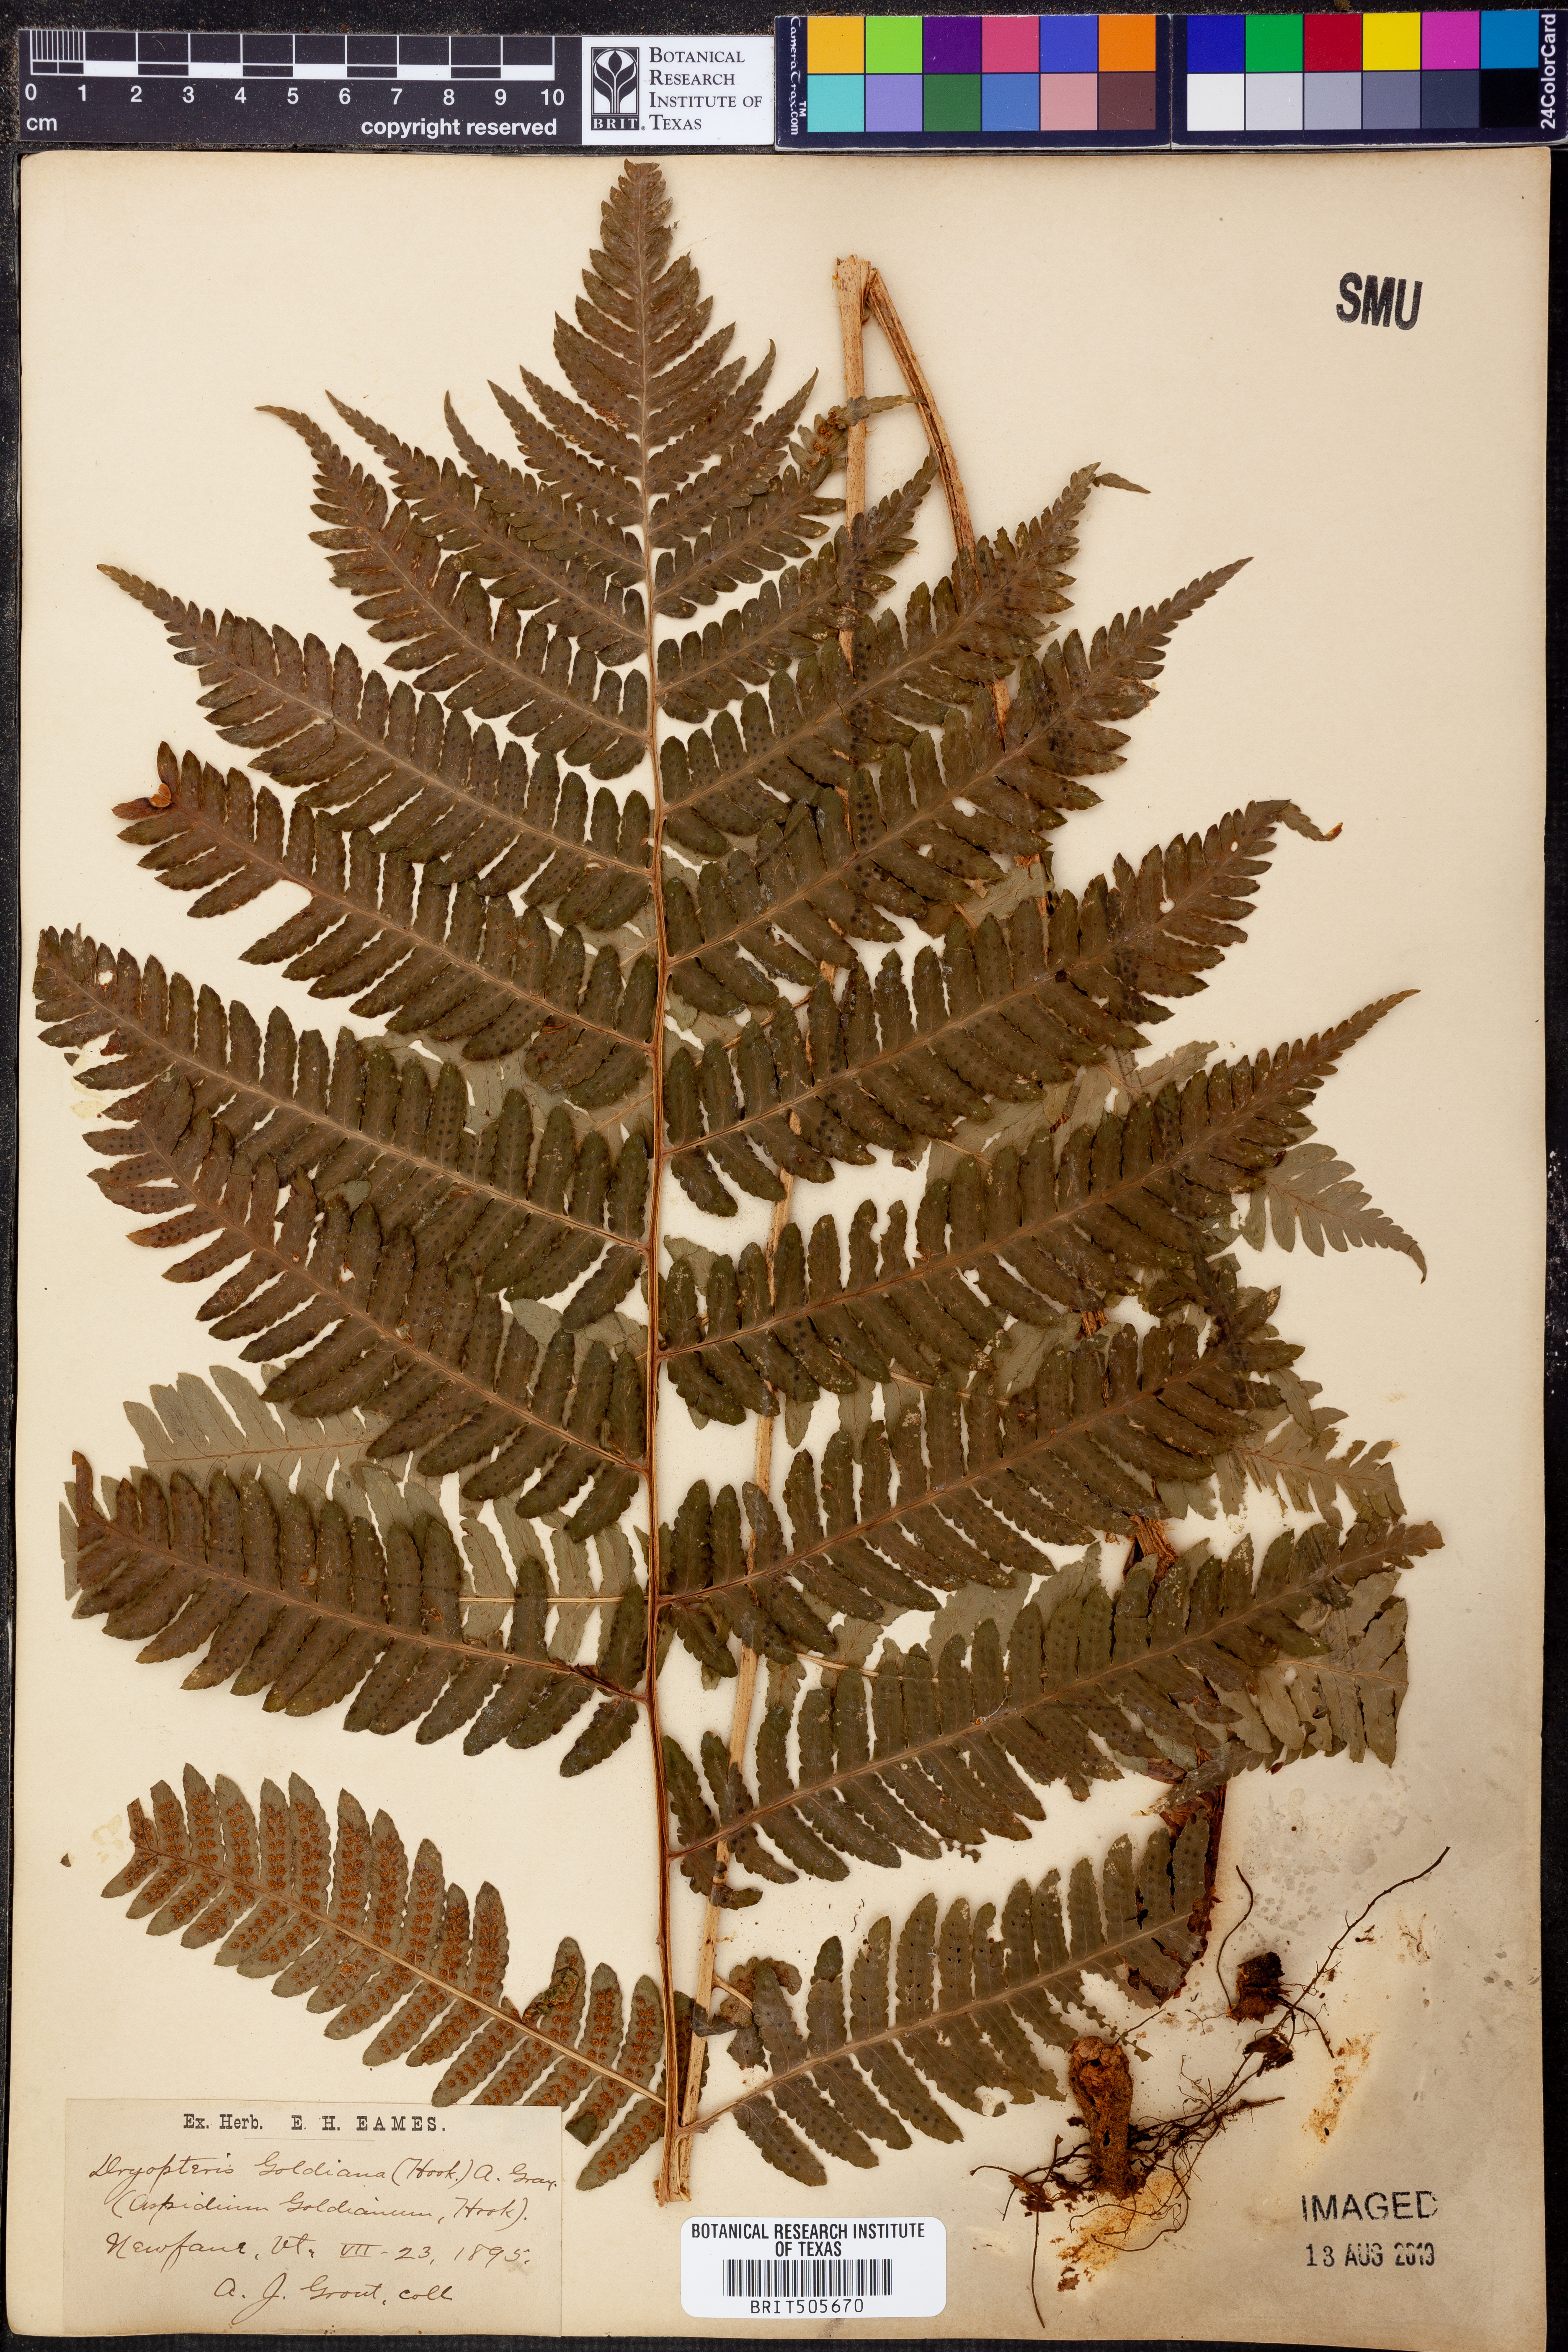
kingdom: Plantae
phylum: Tracheophyta
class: Polypodiopsida
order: Polypodiales
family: Dryopteridaceae
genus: Dryopteris
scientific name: Dryopteris goeldiana
